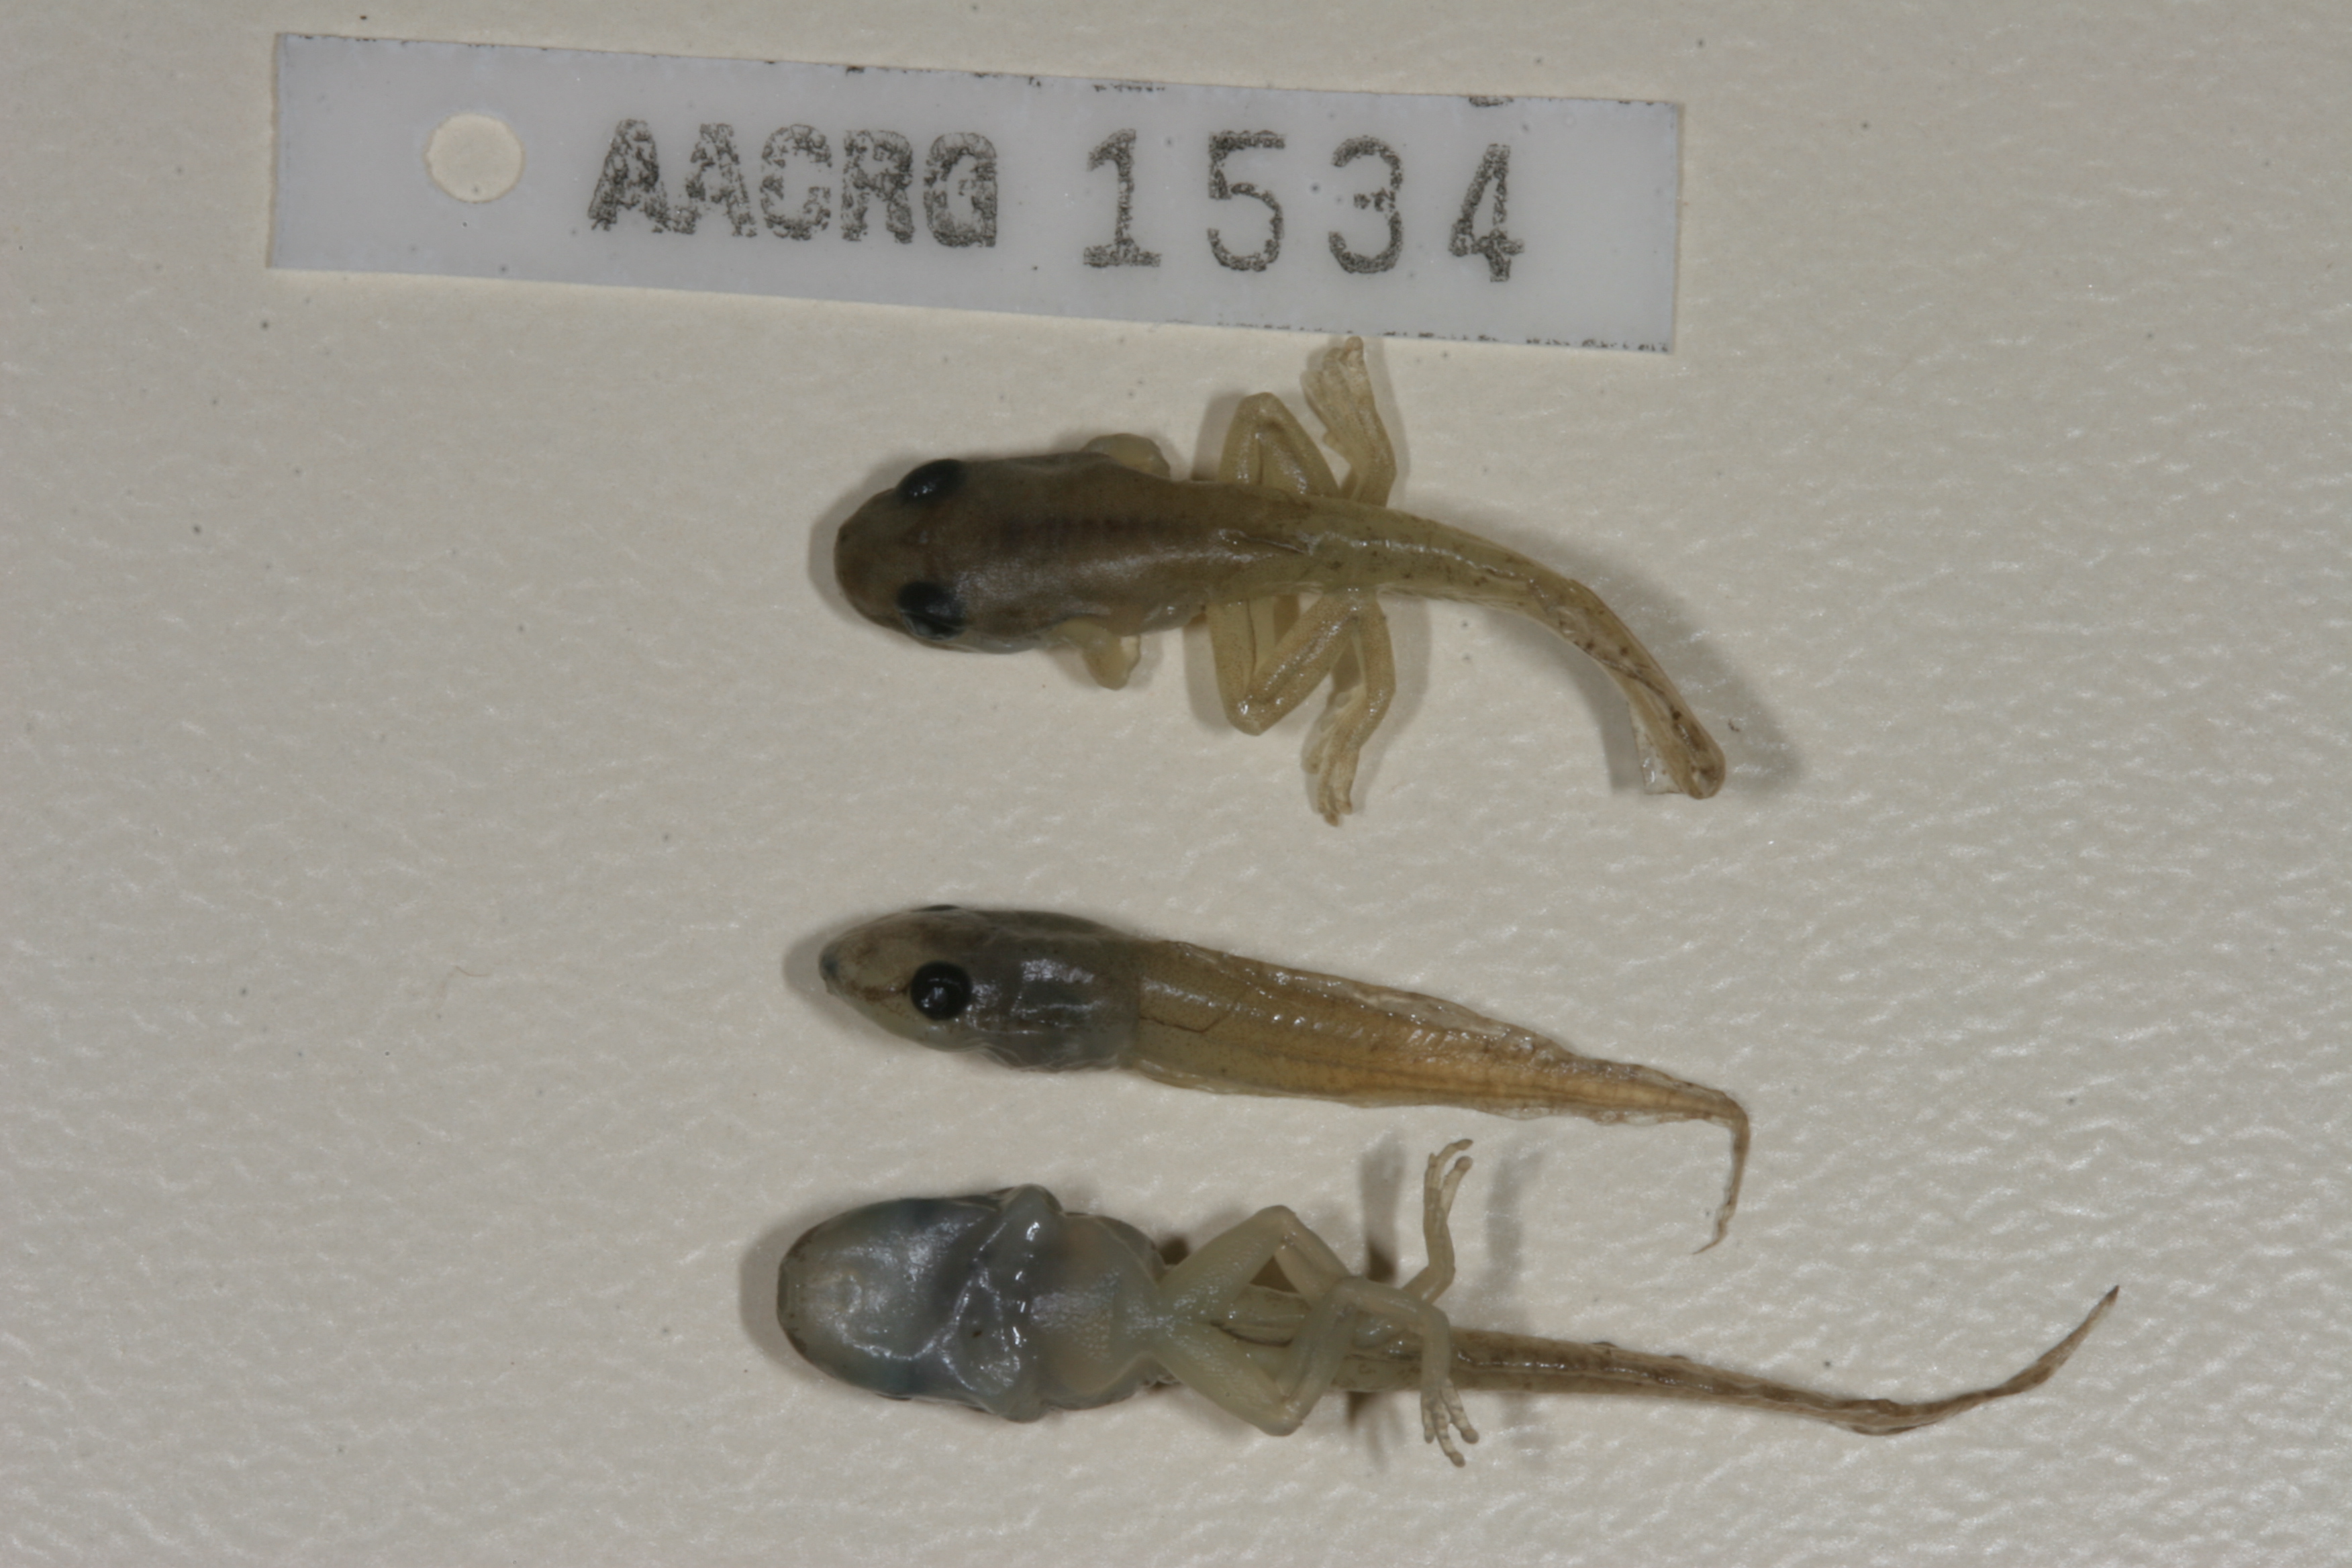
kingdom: Animalia
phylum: Chordata
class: Amphibia
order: Anura
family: Hyperoliidae
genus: Afrixalus
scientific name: Afrixalus aureus
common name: Golden banana frog
